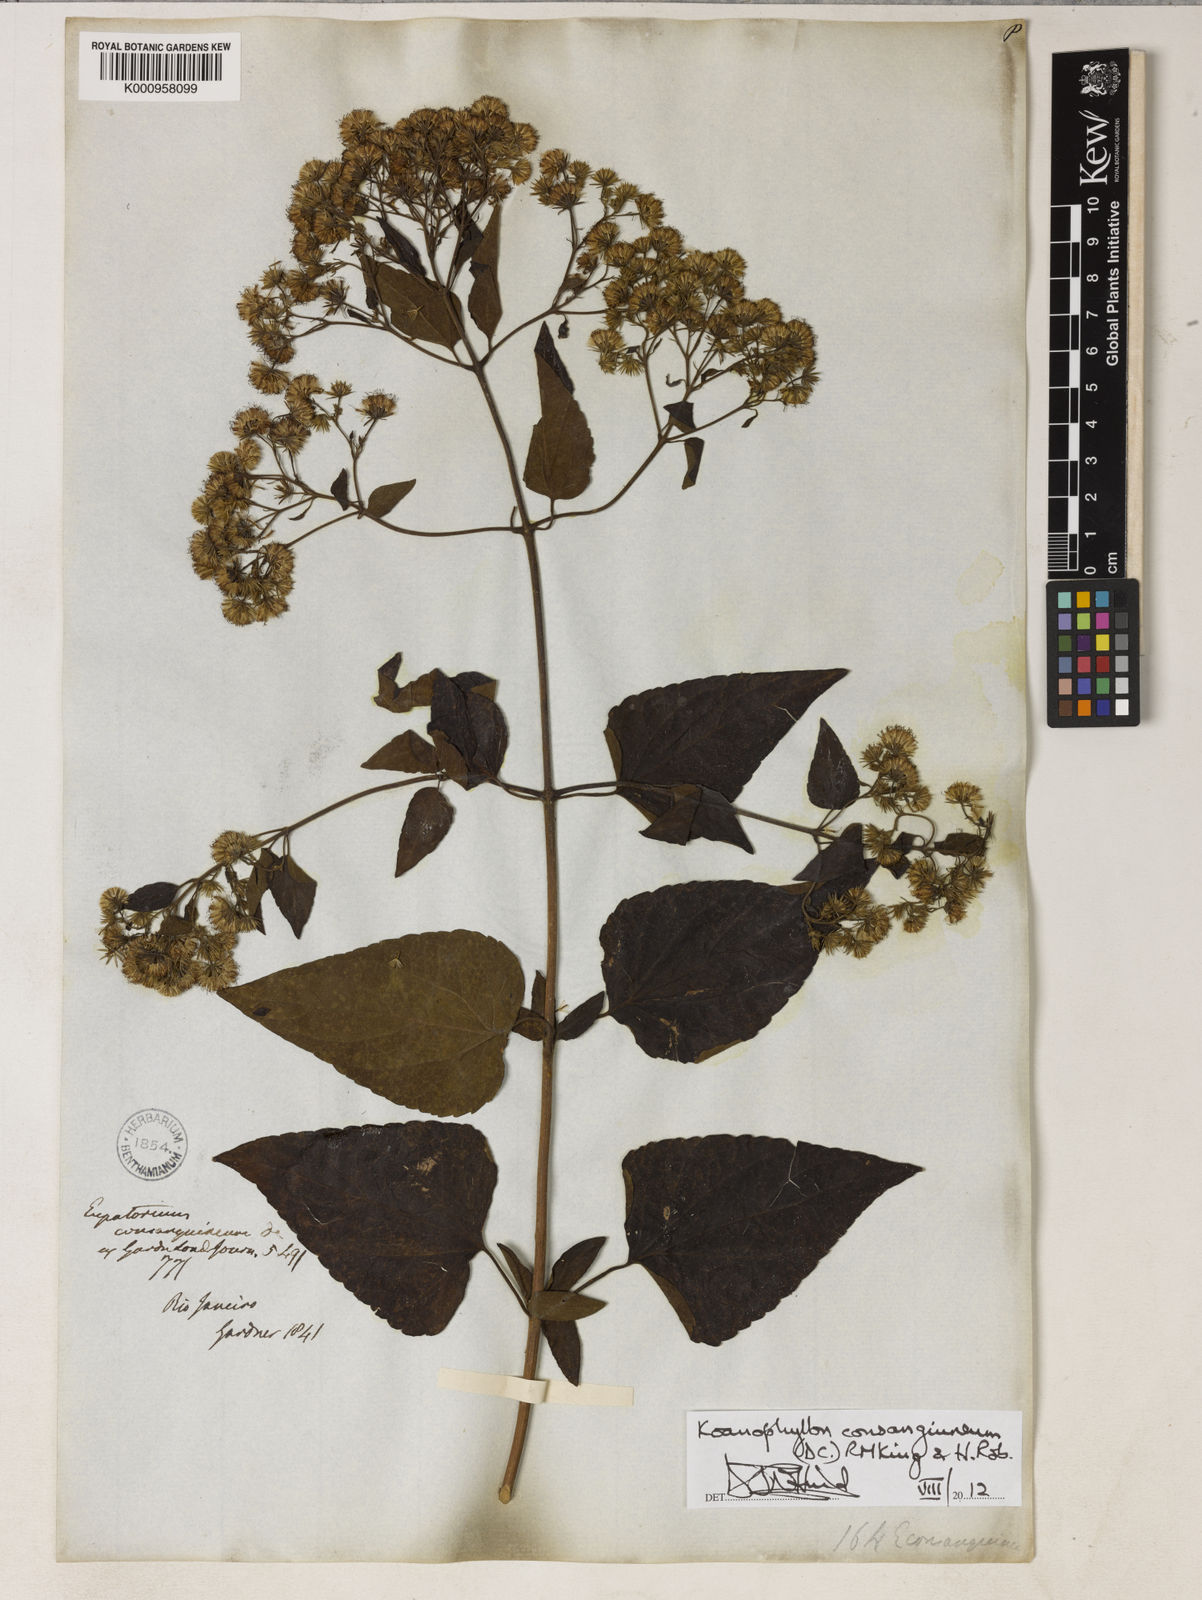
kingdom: Plantae
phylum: Tracheophyta
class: Magnoliopsida
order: Asterales
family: Asteraceae
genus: Koanophyllon
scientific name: Koanophyllon consanguineum
